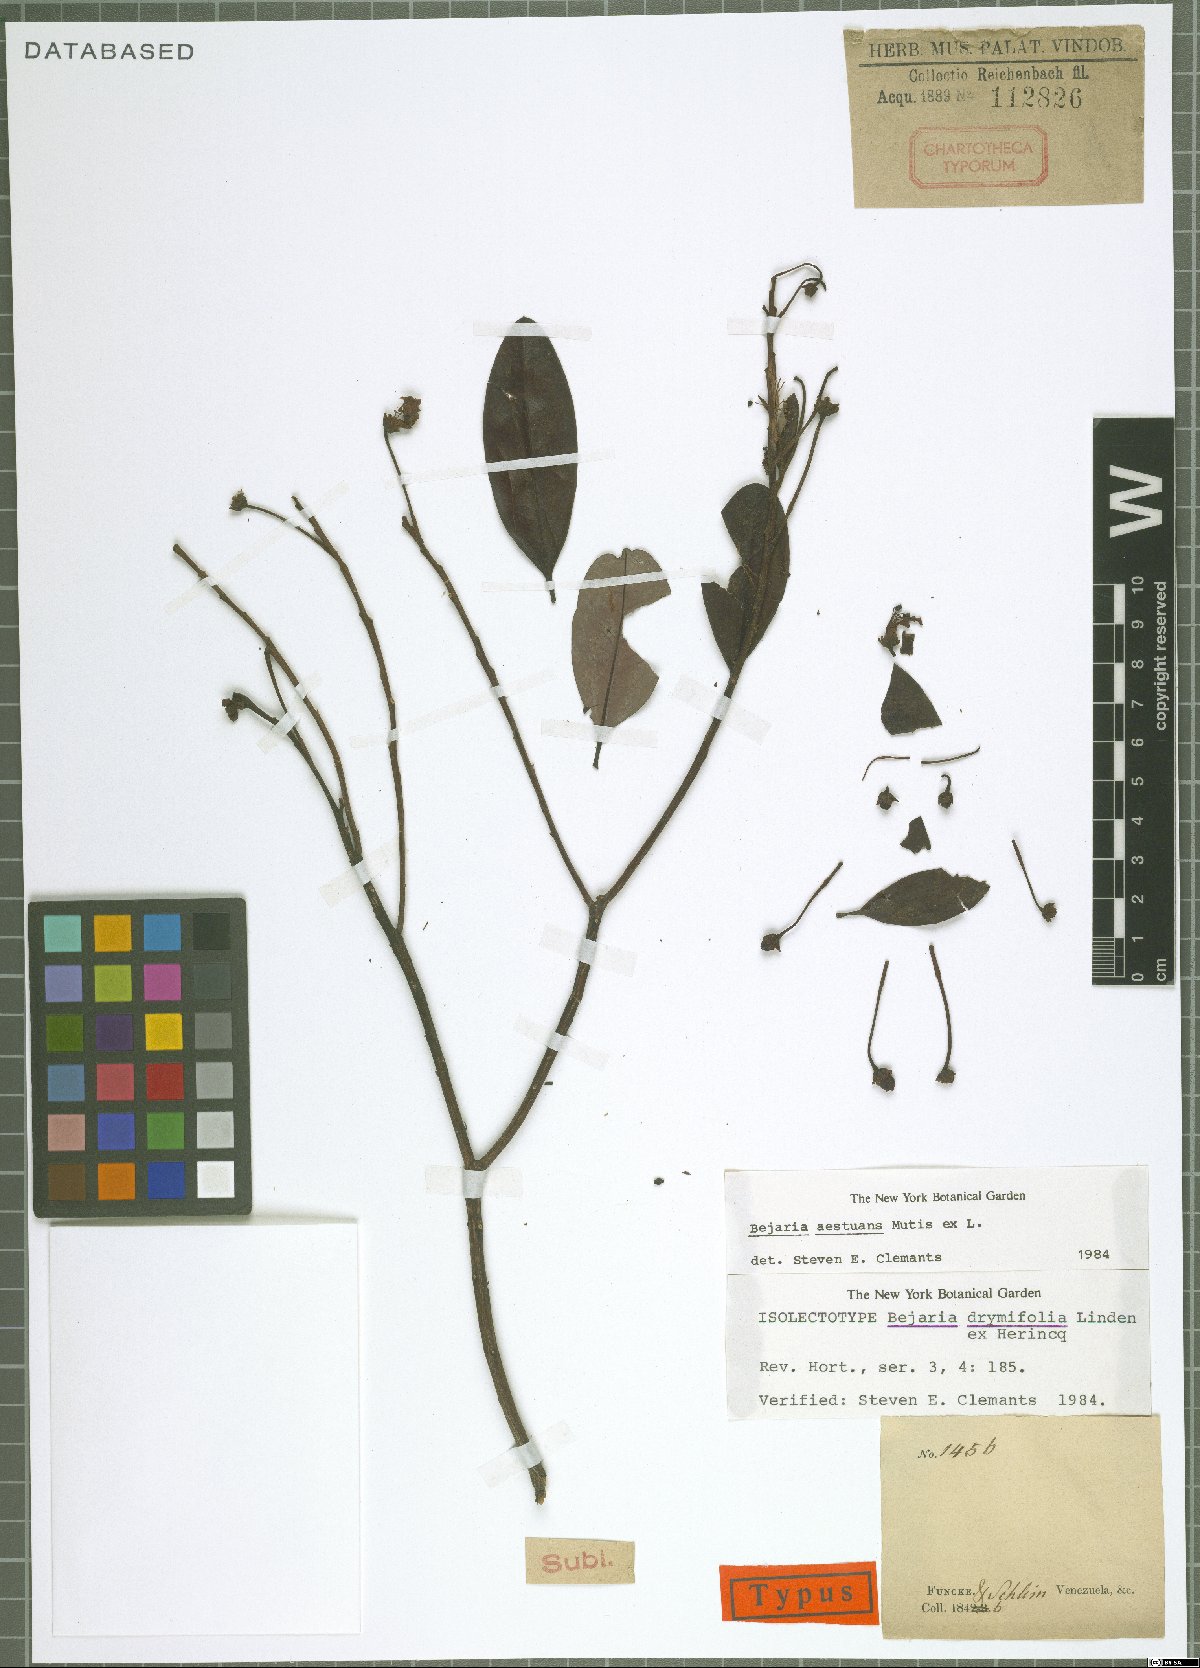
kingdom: Plantae
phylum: Tracheophyta
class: Magnoliopsida
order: Ericales
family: Ericaceae
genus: Bejaria
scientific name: Bejaria aestuans
